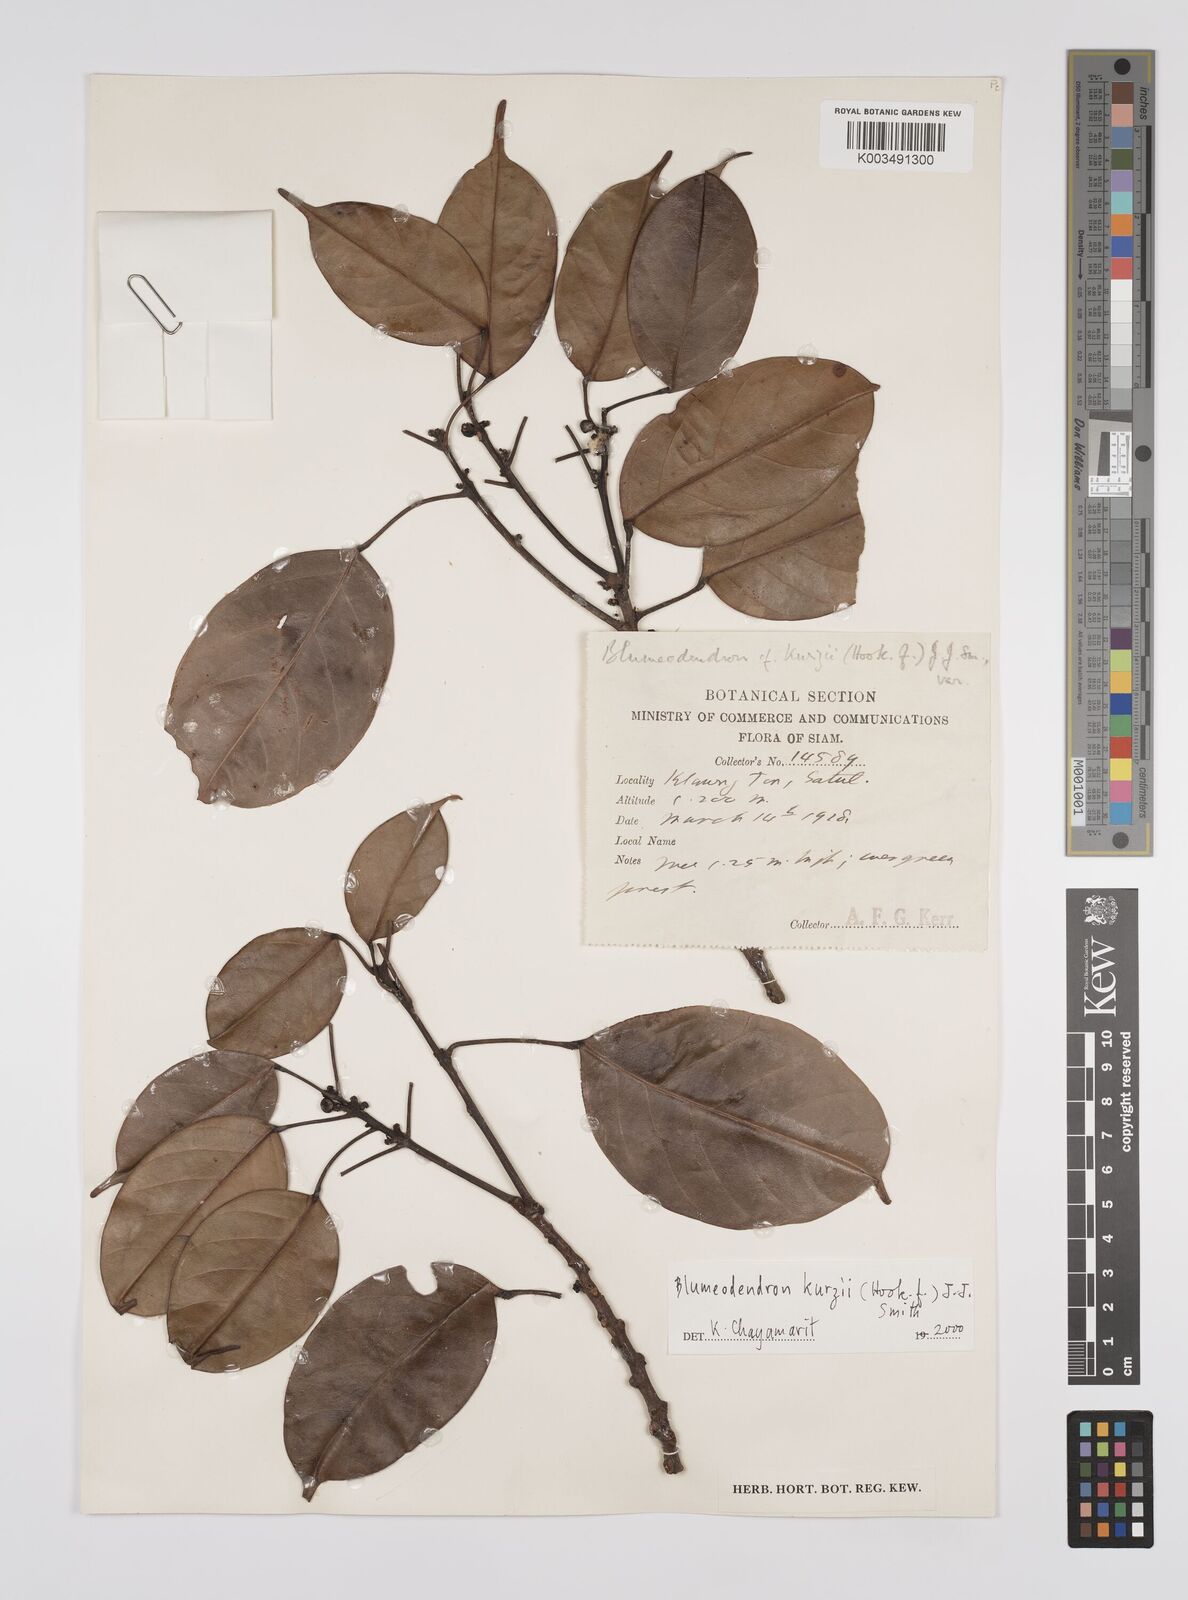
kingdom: Plantae
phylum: Tracheophyta
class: Magnoliopsida
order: Malpighiales
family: Euphorbiaceae
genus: Blumeodendron
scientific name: Blumeodendron kurzii
